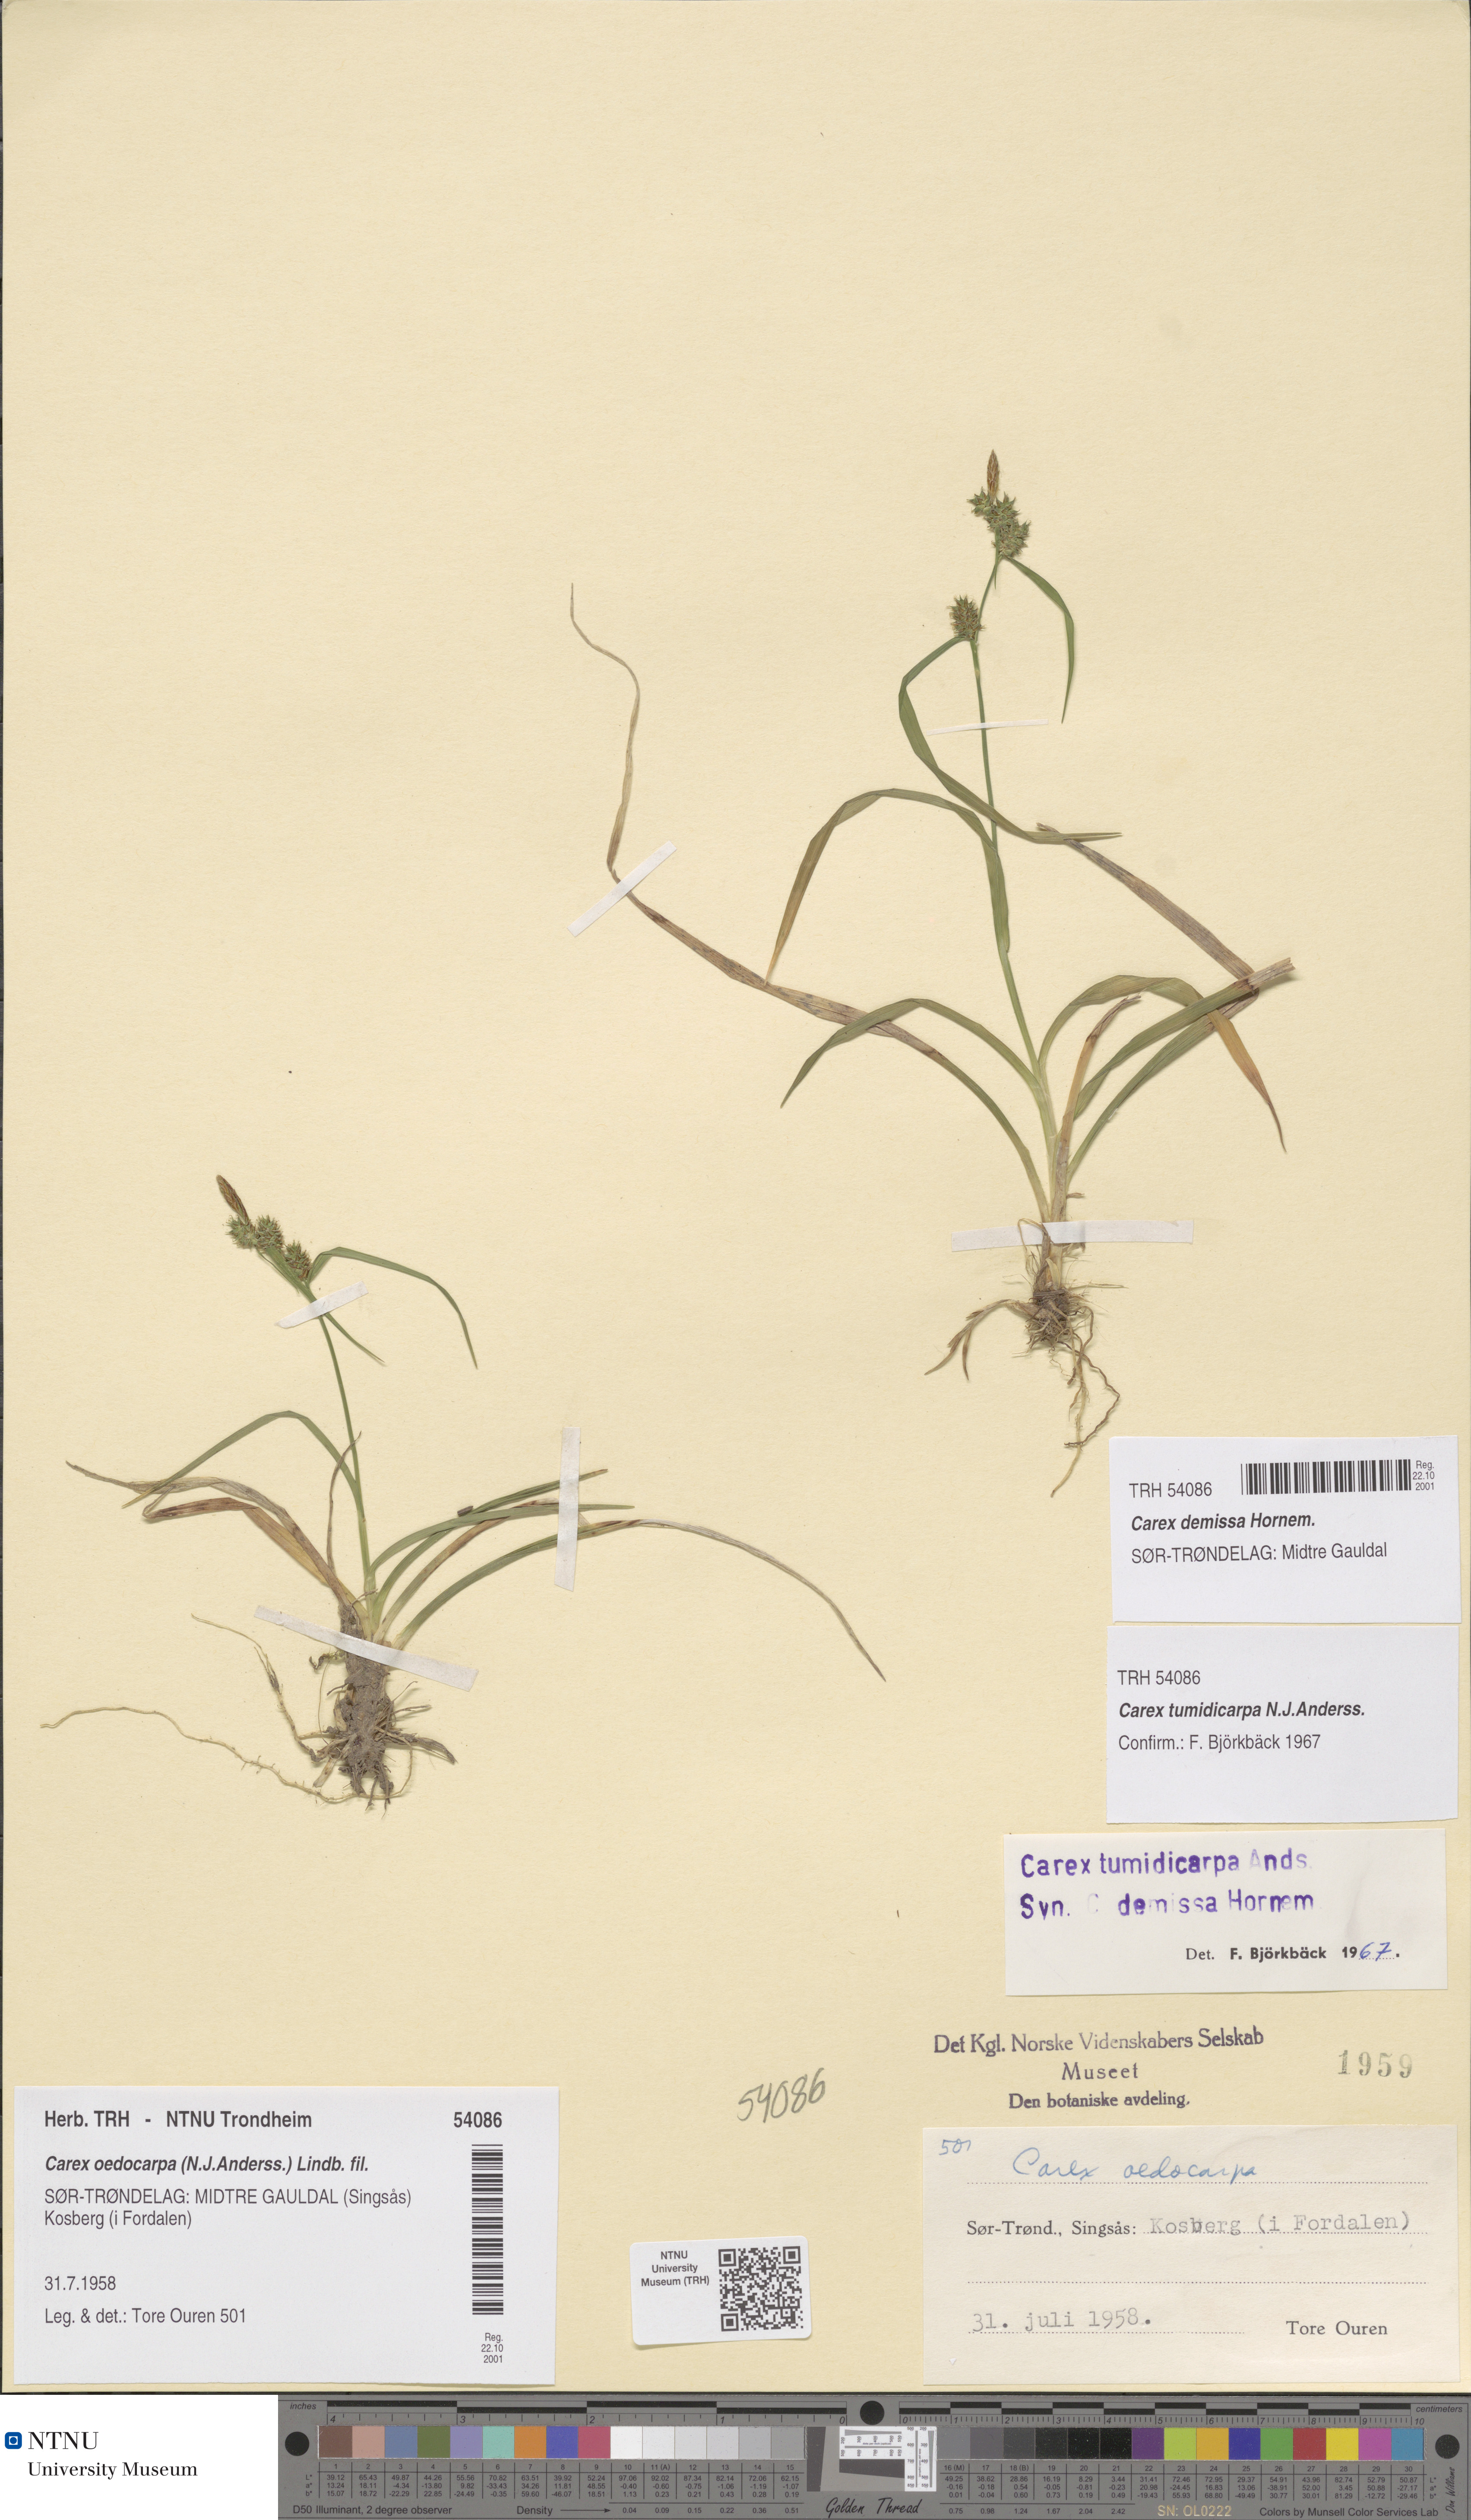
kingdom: Plantae
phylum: Tracheophyta
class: Liliopsida
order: Poales
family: Cyperaceae
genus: Carex
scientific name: Carex demissa
